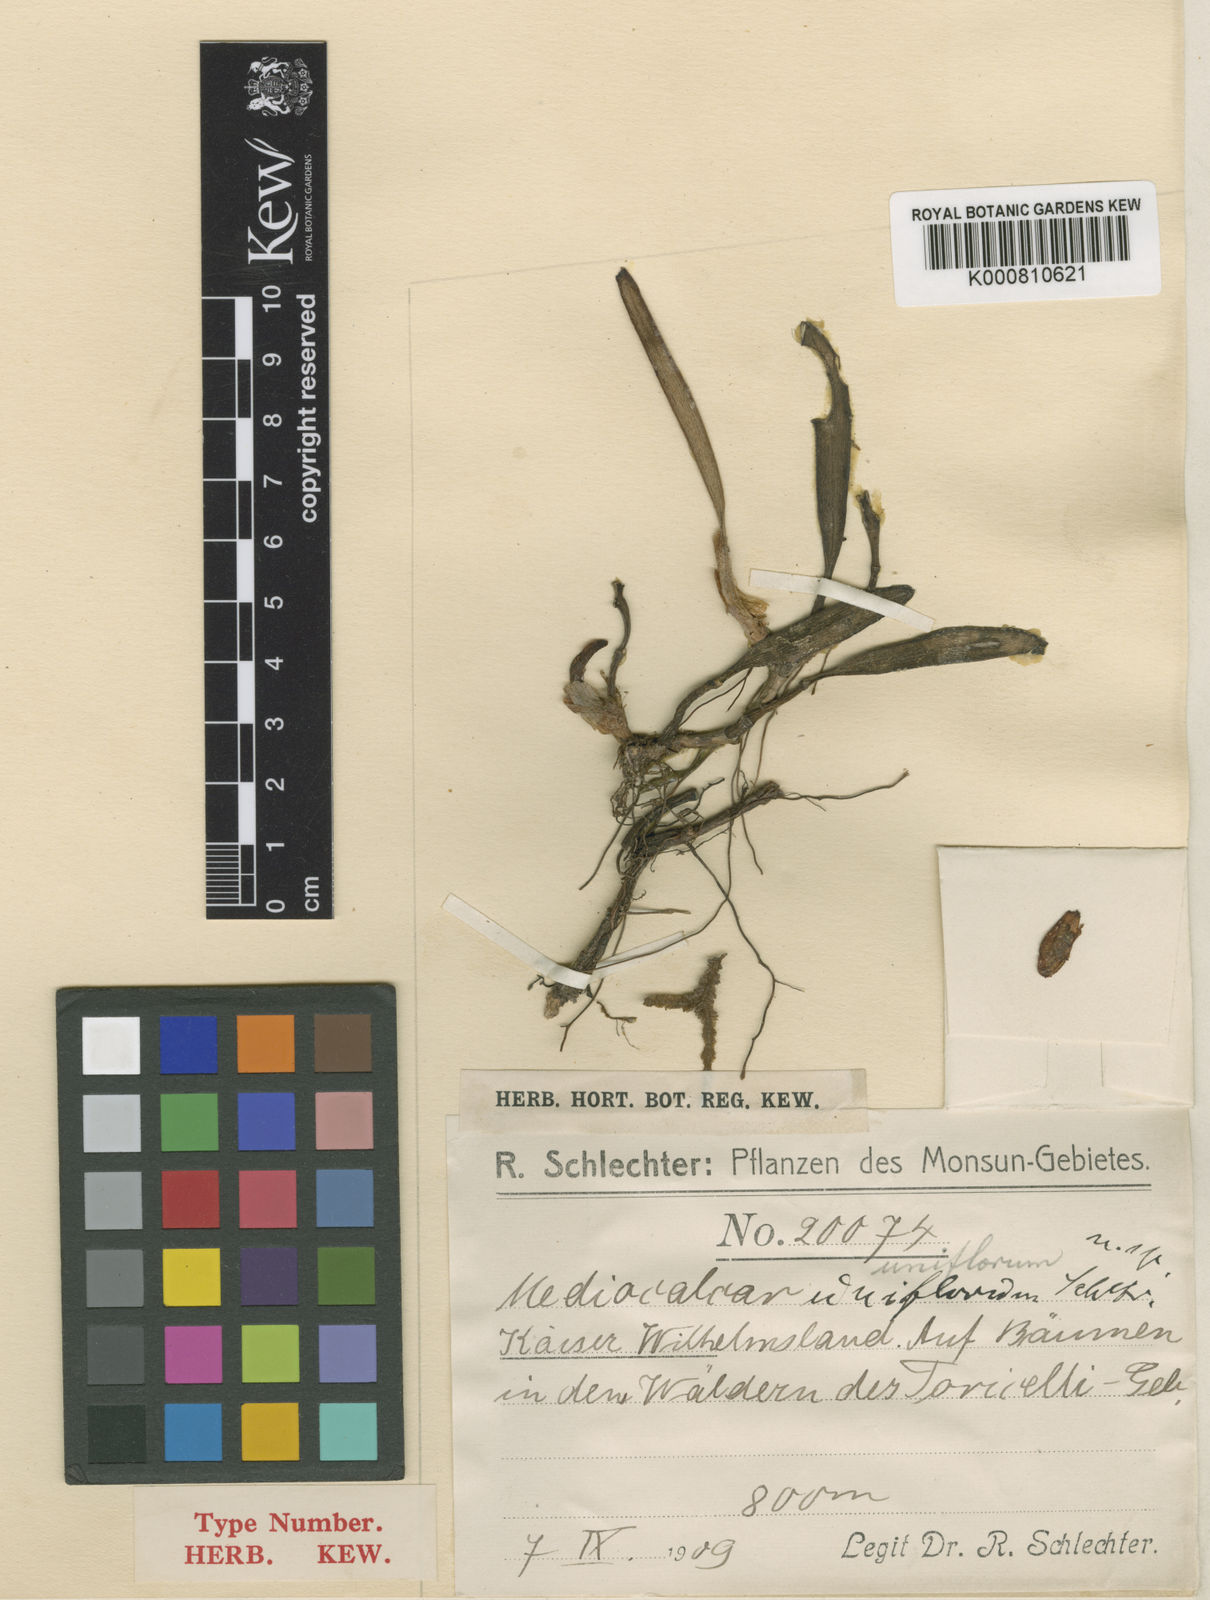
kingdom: Plantae
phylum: Tracheophyta
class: Liliopsida
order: Asparagales
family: Orchidaceae
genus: Mediocalcar
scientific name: Mediocalcar uniflorum
